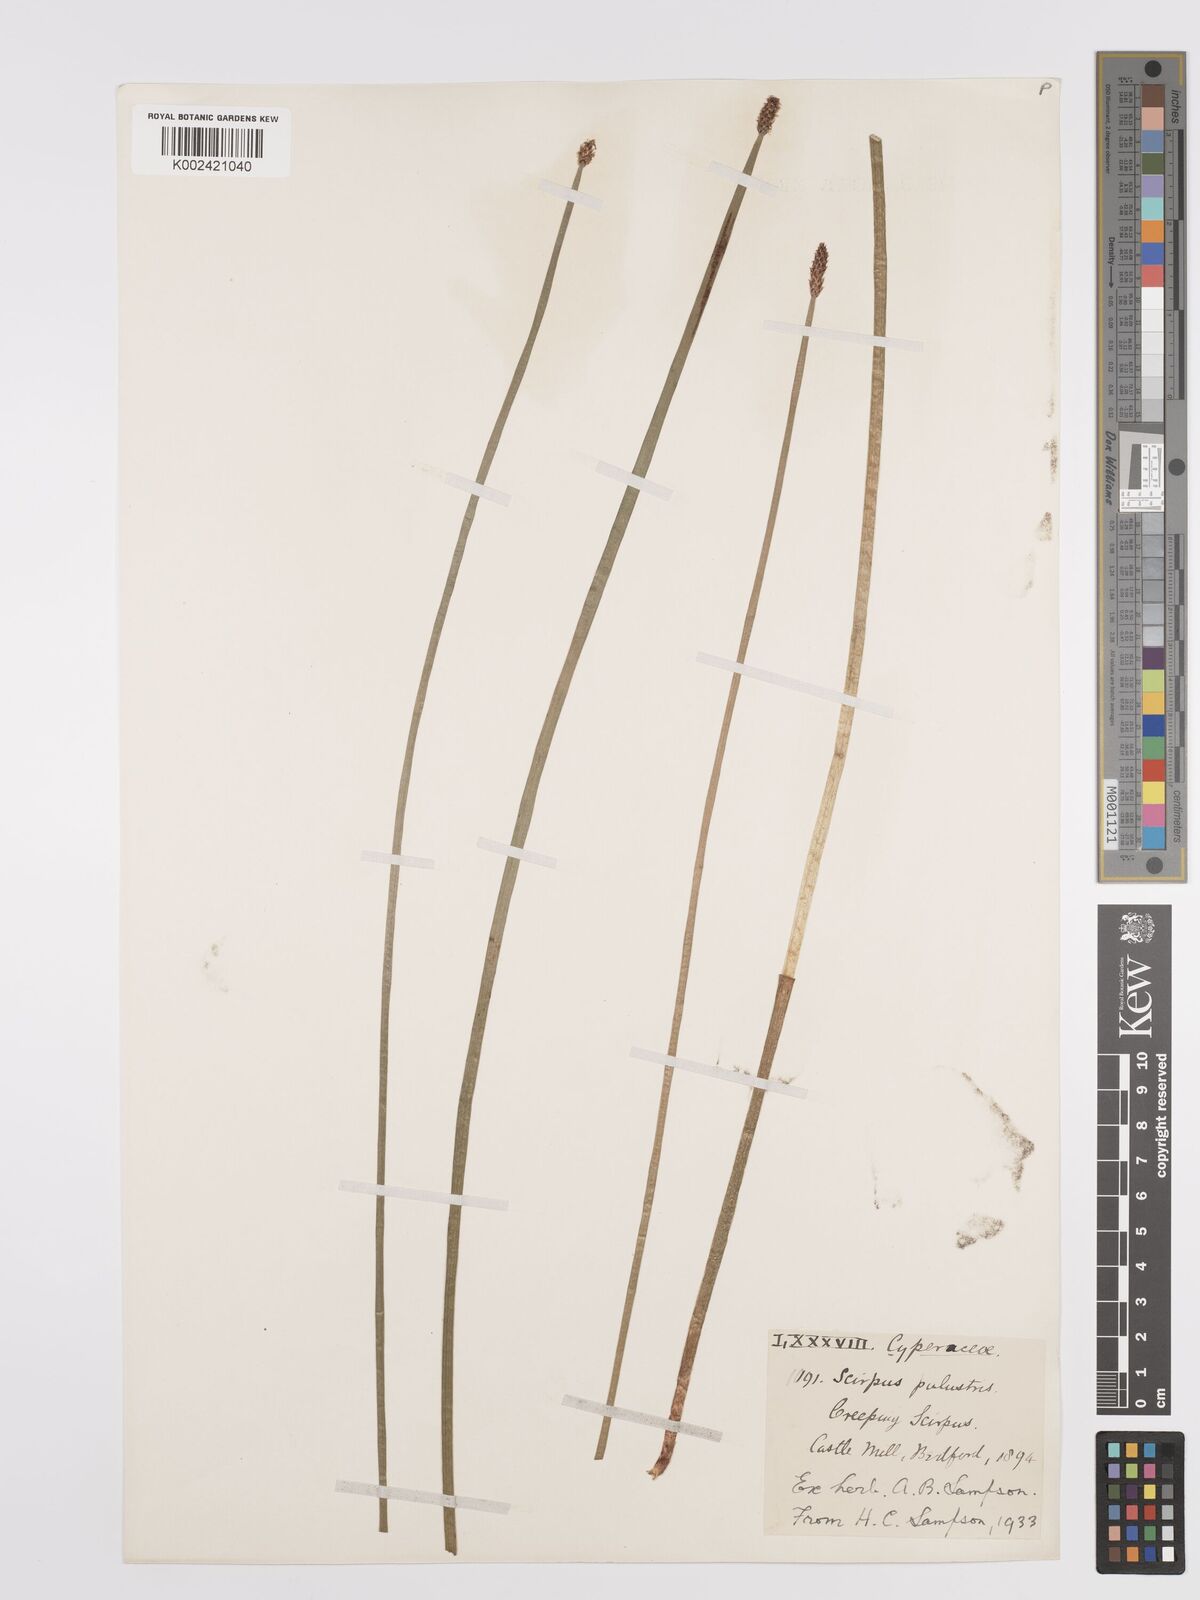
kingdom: Plantae
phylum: Tracheophyta
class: Liliopsida
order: Poales
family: Cyperaceae
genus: Eleocharis
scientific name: Eleocharis palustris
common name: Common spike-rush
